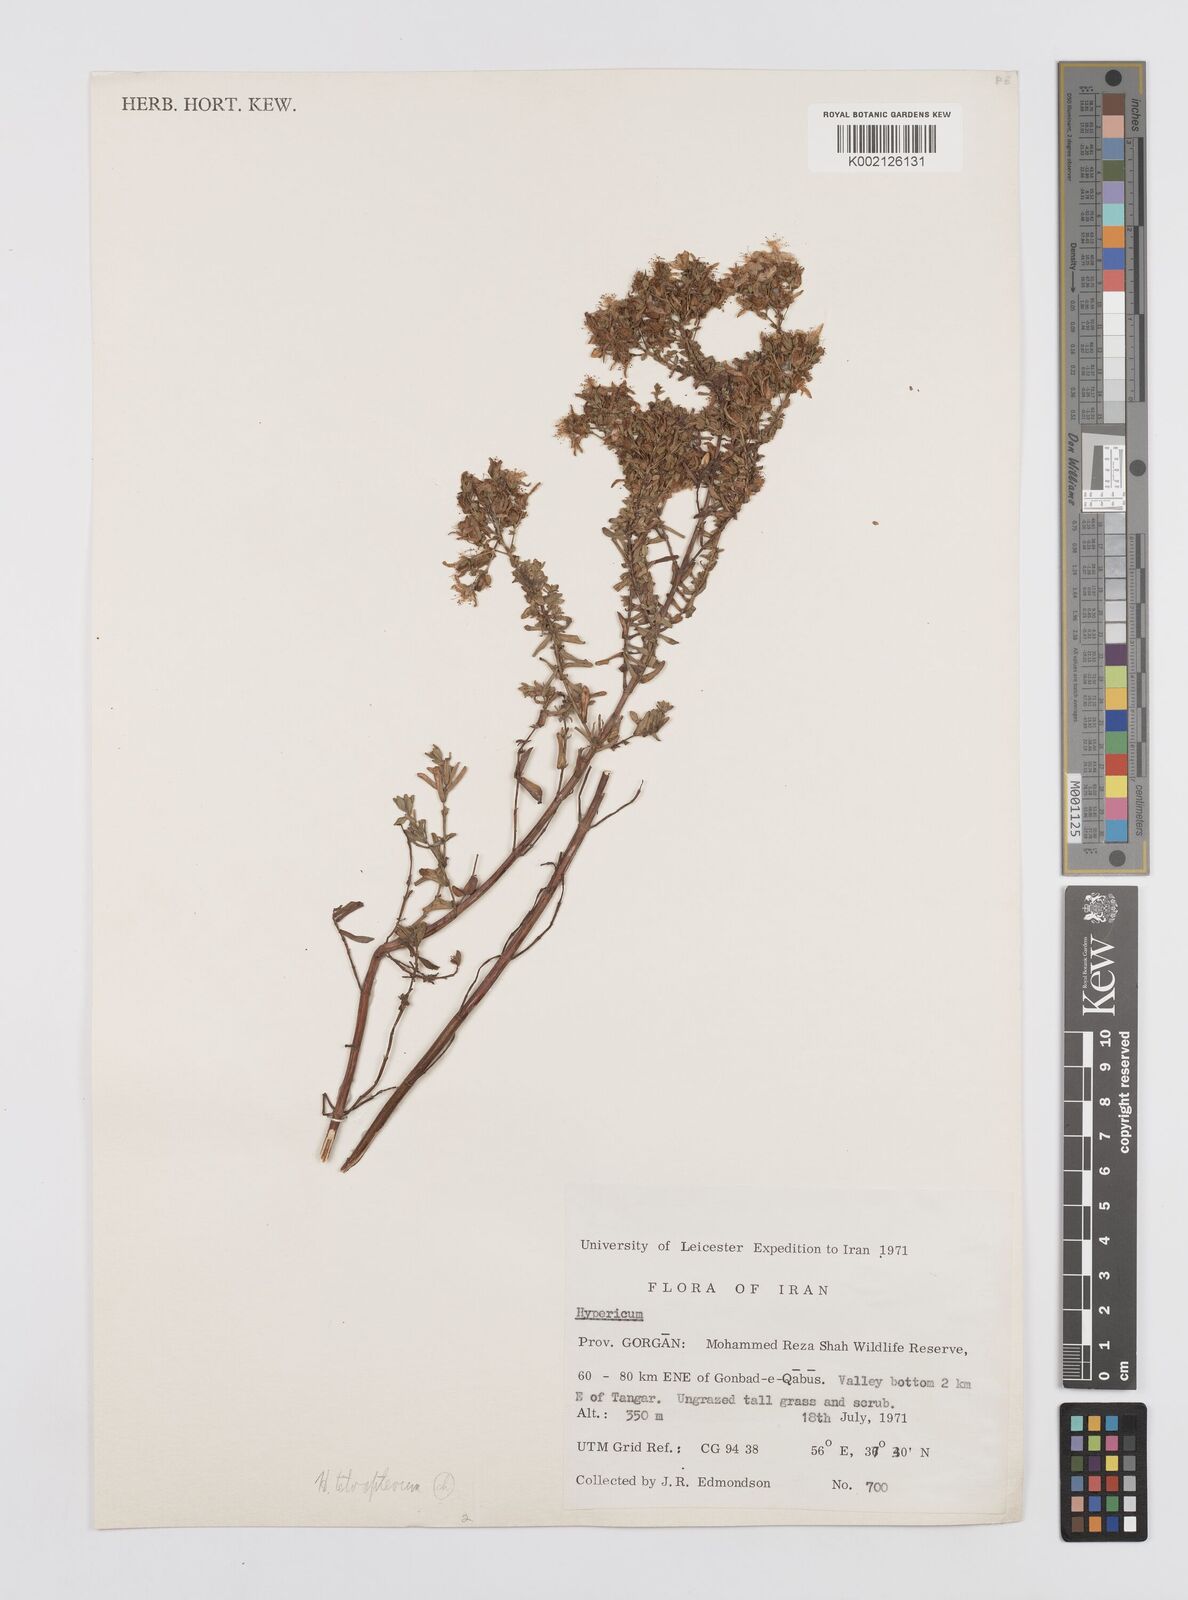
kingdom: Plantae
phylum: Tracheophyta
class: Magnoliopsida
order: Malpighiales
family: Hypericaceae
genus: Hypericum
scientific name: Hypericum tetrapterum
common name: Square-stalked st. john's-wort
